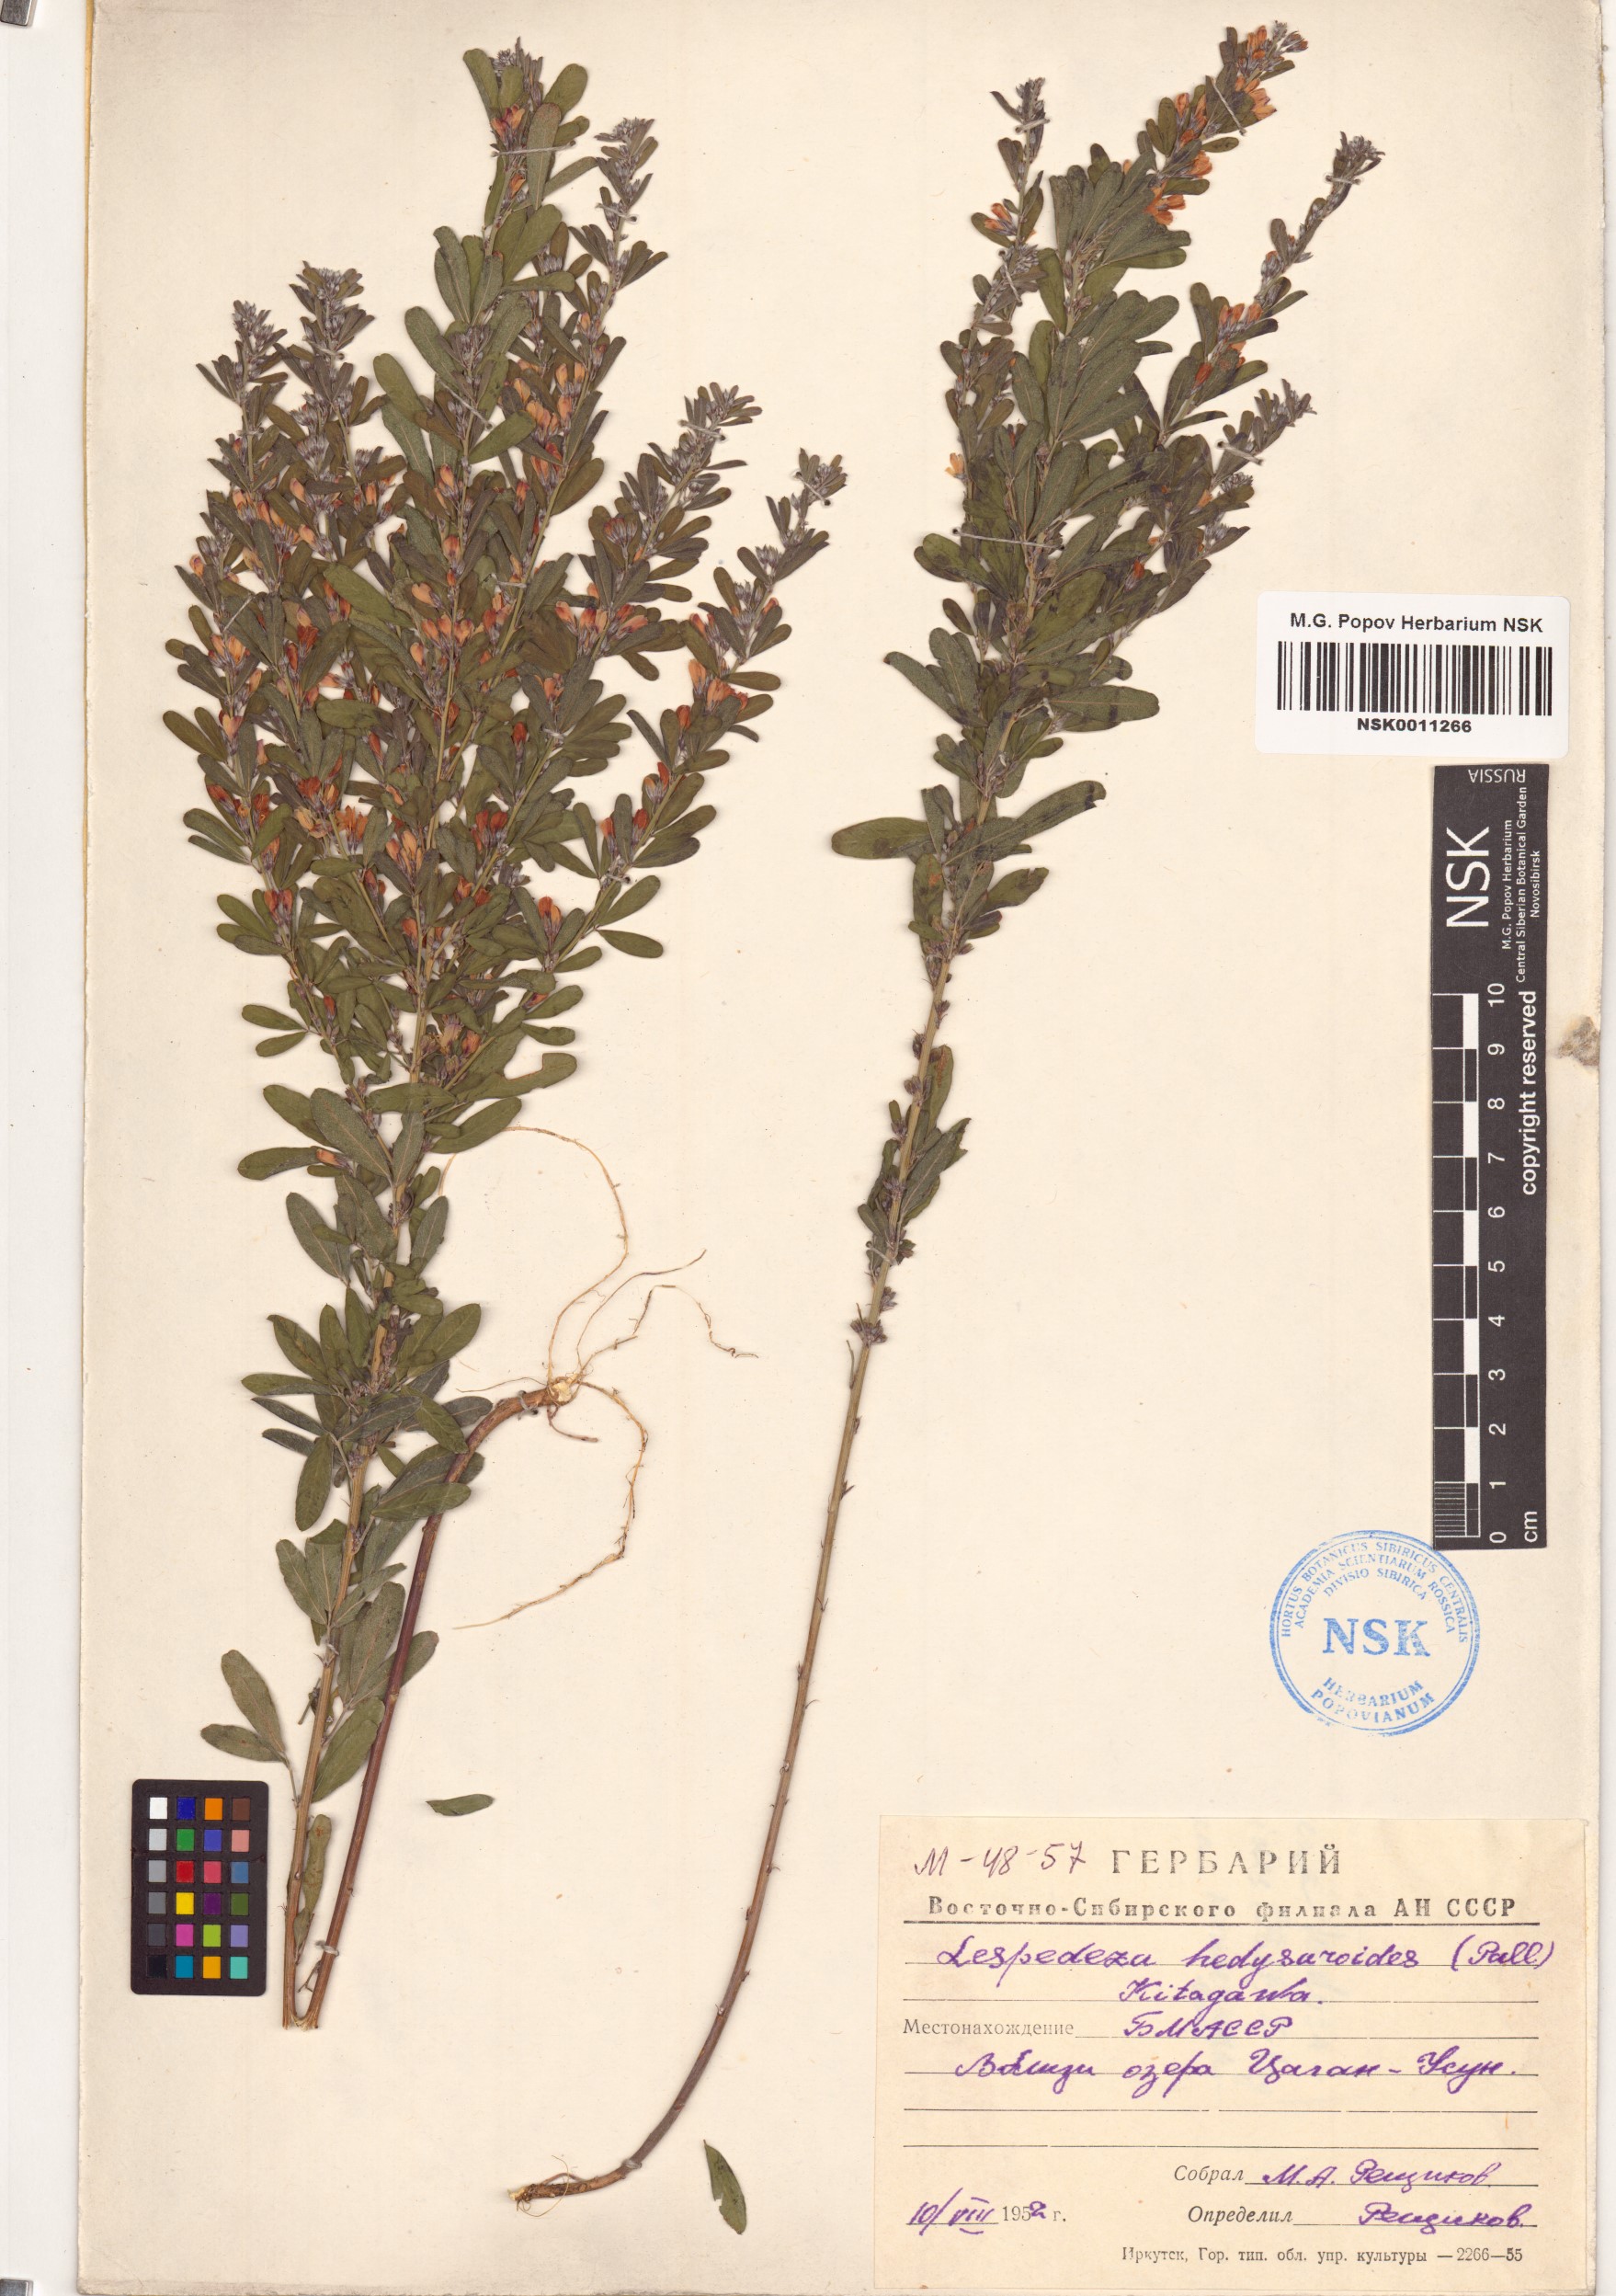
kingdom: Plantae
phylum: Tracheophyta
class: Magnoliopsida
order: Fabales
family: Fabaceae
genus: Lespedeza
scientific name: Lespedeza juncea
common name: Siberian lespedeza
